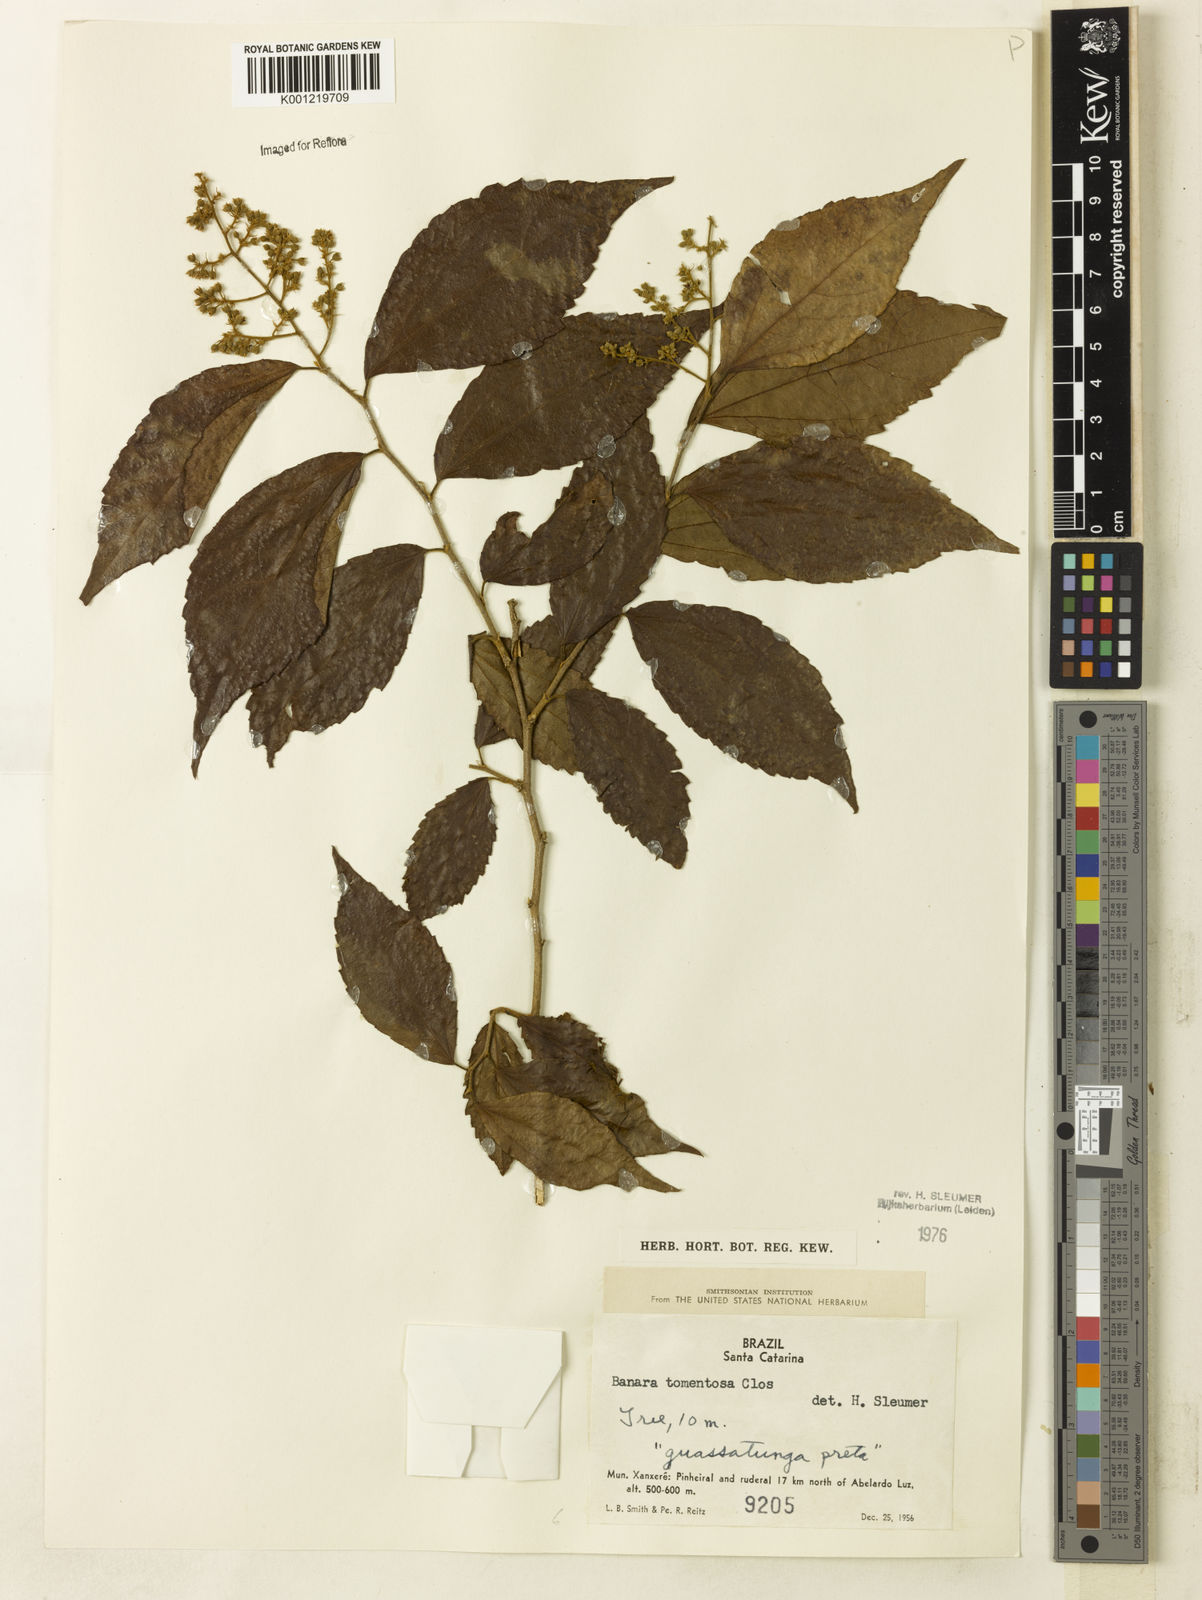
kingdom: Plantae
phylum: Tracheophyta
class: Magnoliopsida
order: Malpighiales
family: Salicaceae
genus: Banara
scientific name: Banara tomentosa
